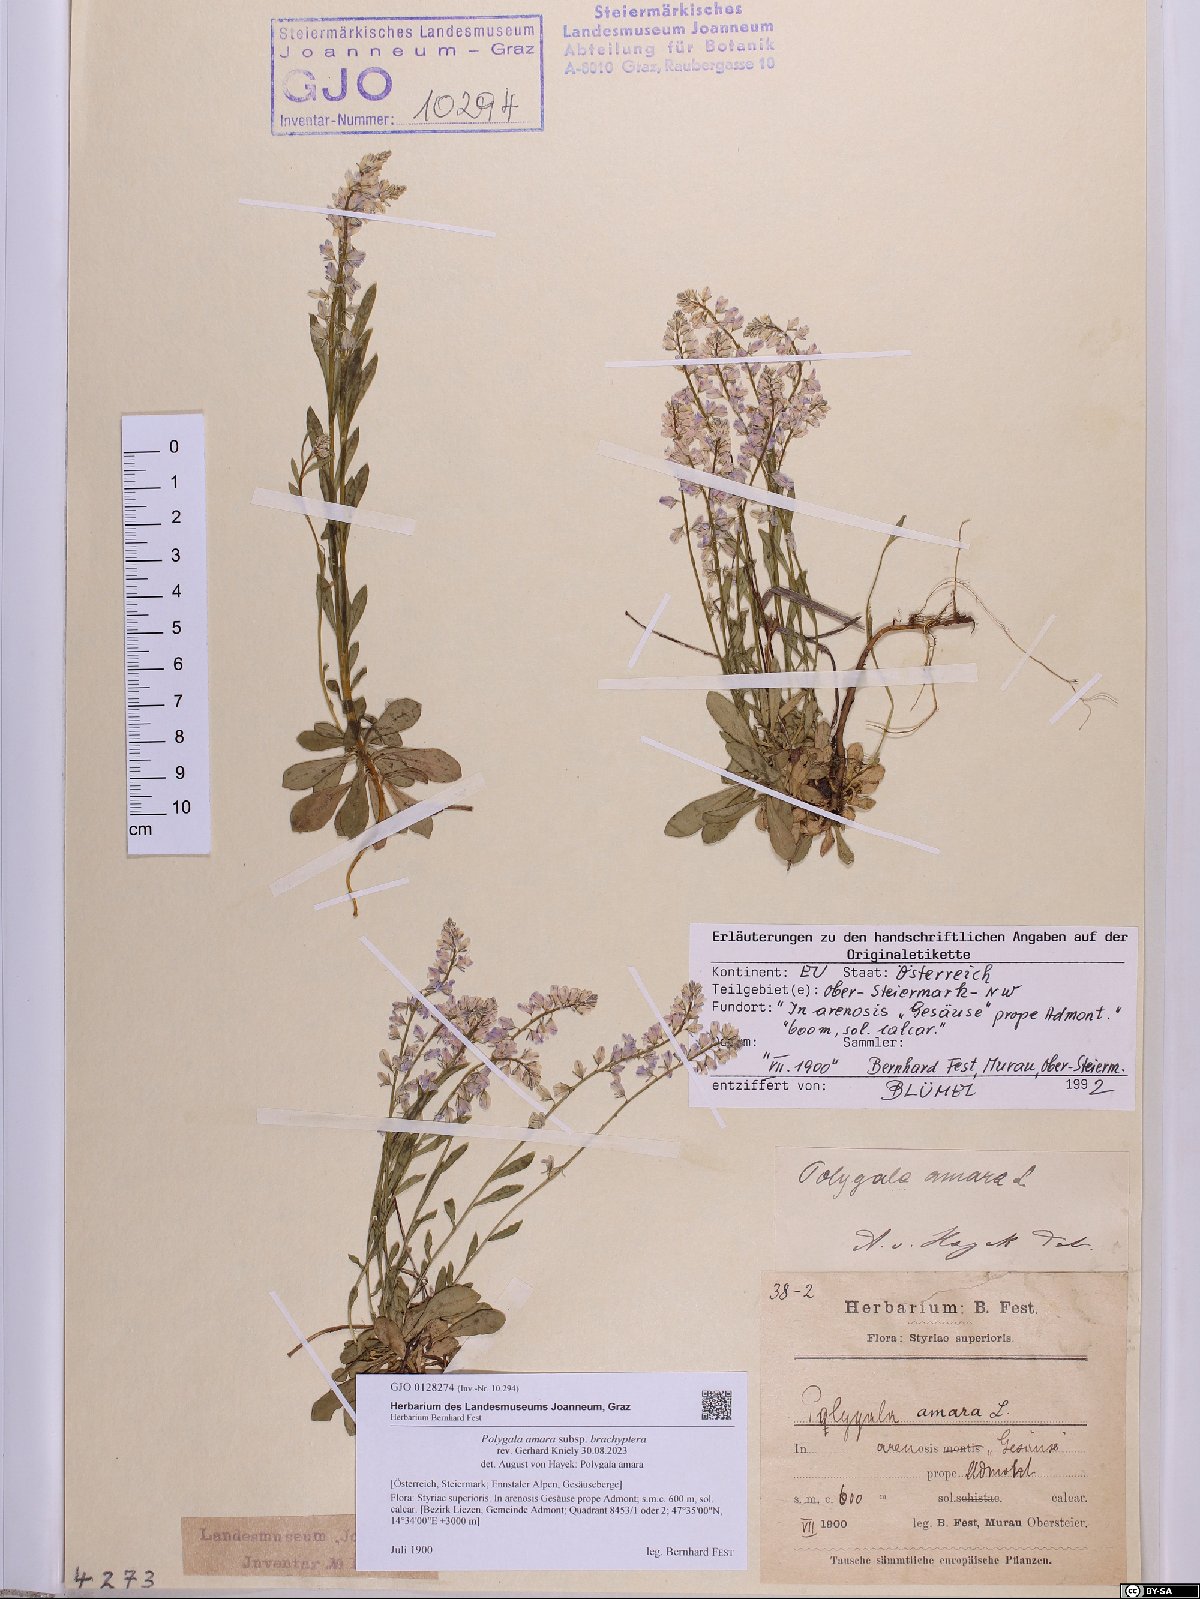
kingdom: Plantae
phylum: Tracheophyta
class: Magnoliopsida
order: Fabales
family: Polygalaceae
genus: Polygala
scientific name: Polygala amara
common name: Milkwort
